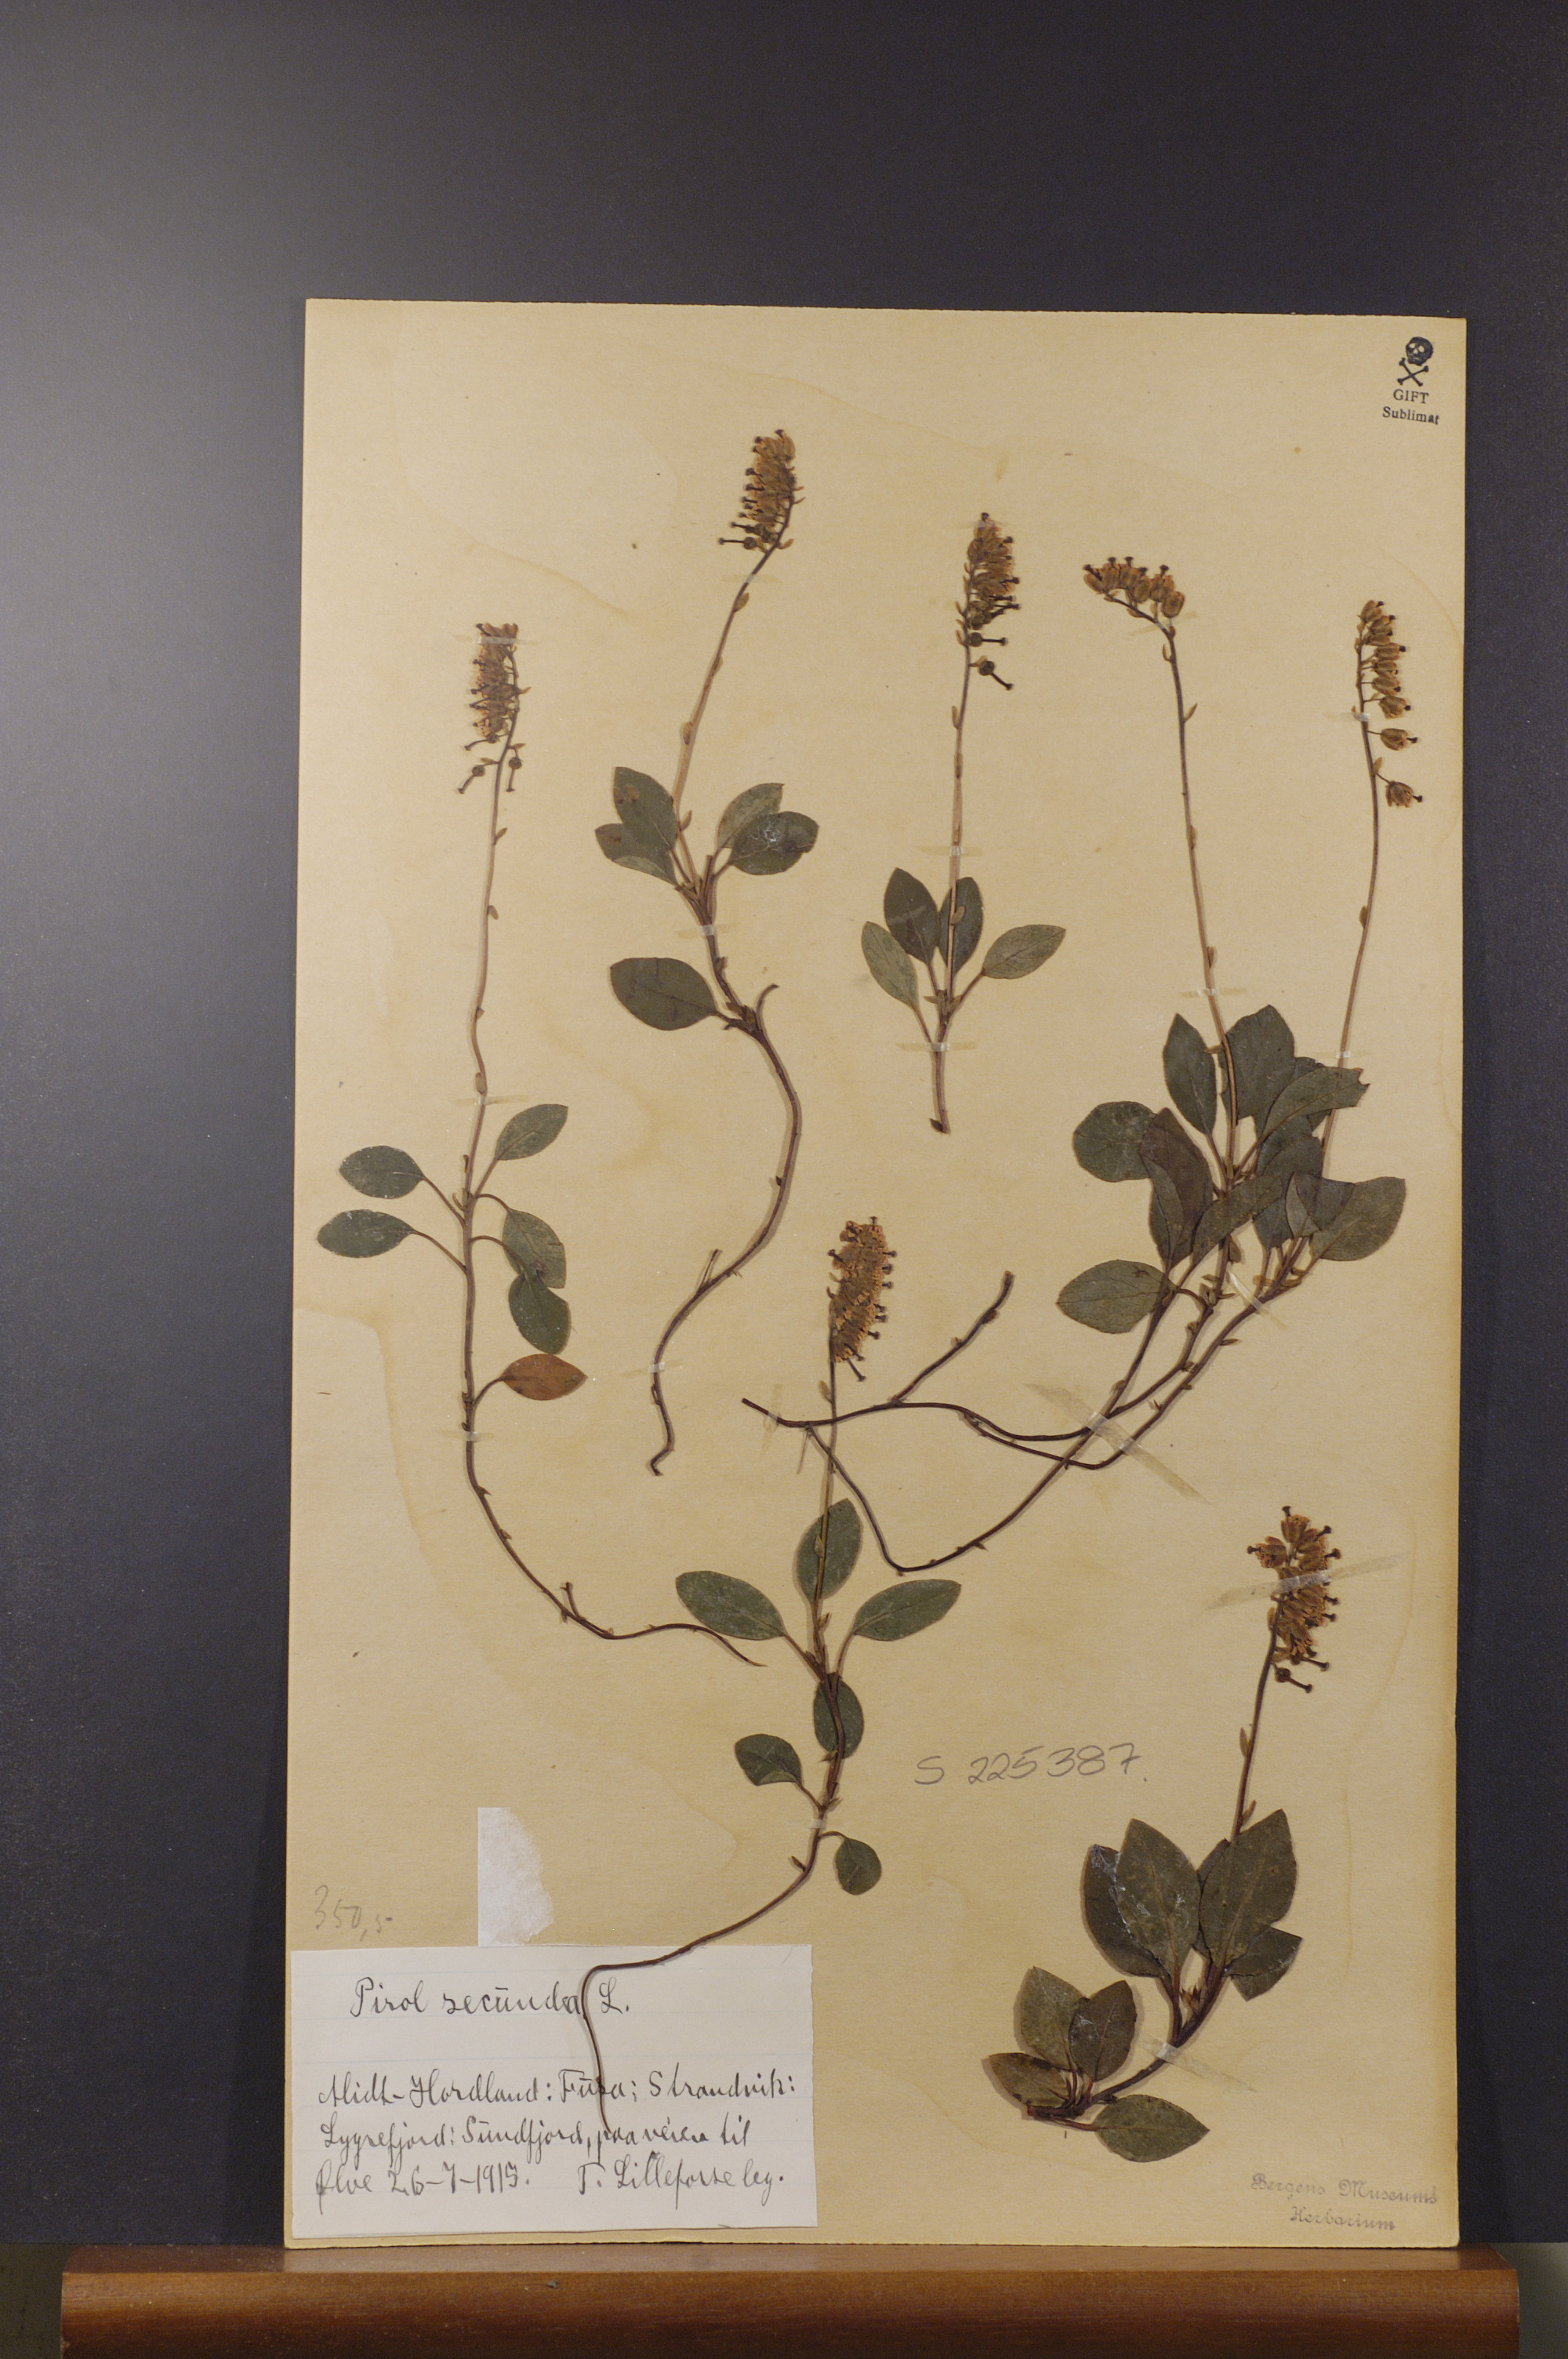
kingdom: Plantae
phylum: Tracheophyta
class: Magnoliopsida
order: Ericales
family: Ericaceae
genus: Orthilia
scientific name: Orthilia secunda
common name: One-sided orthilia
